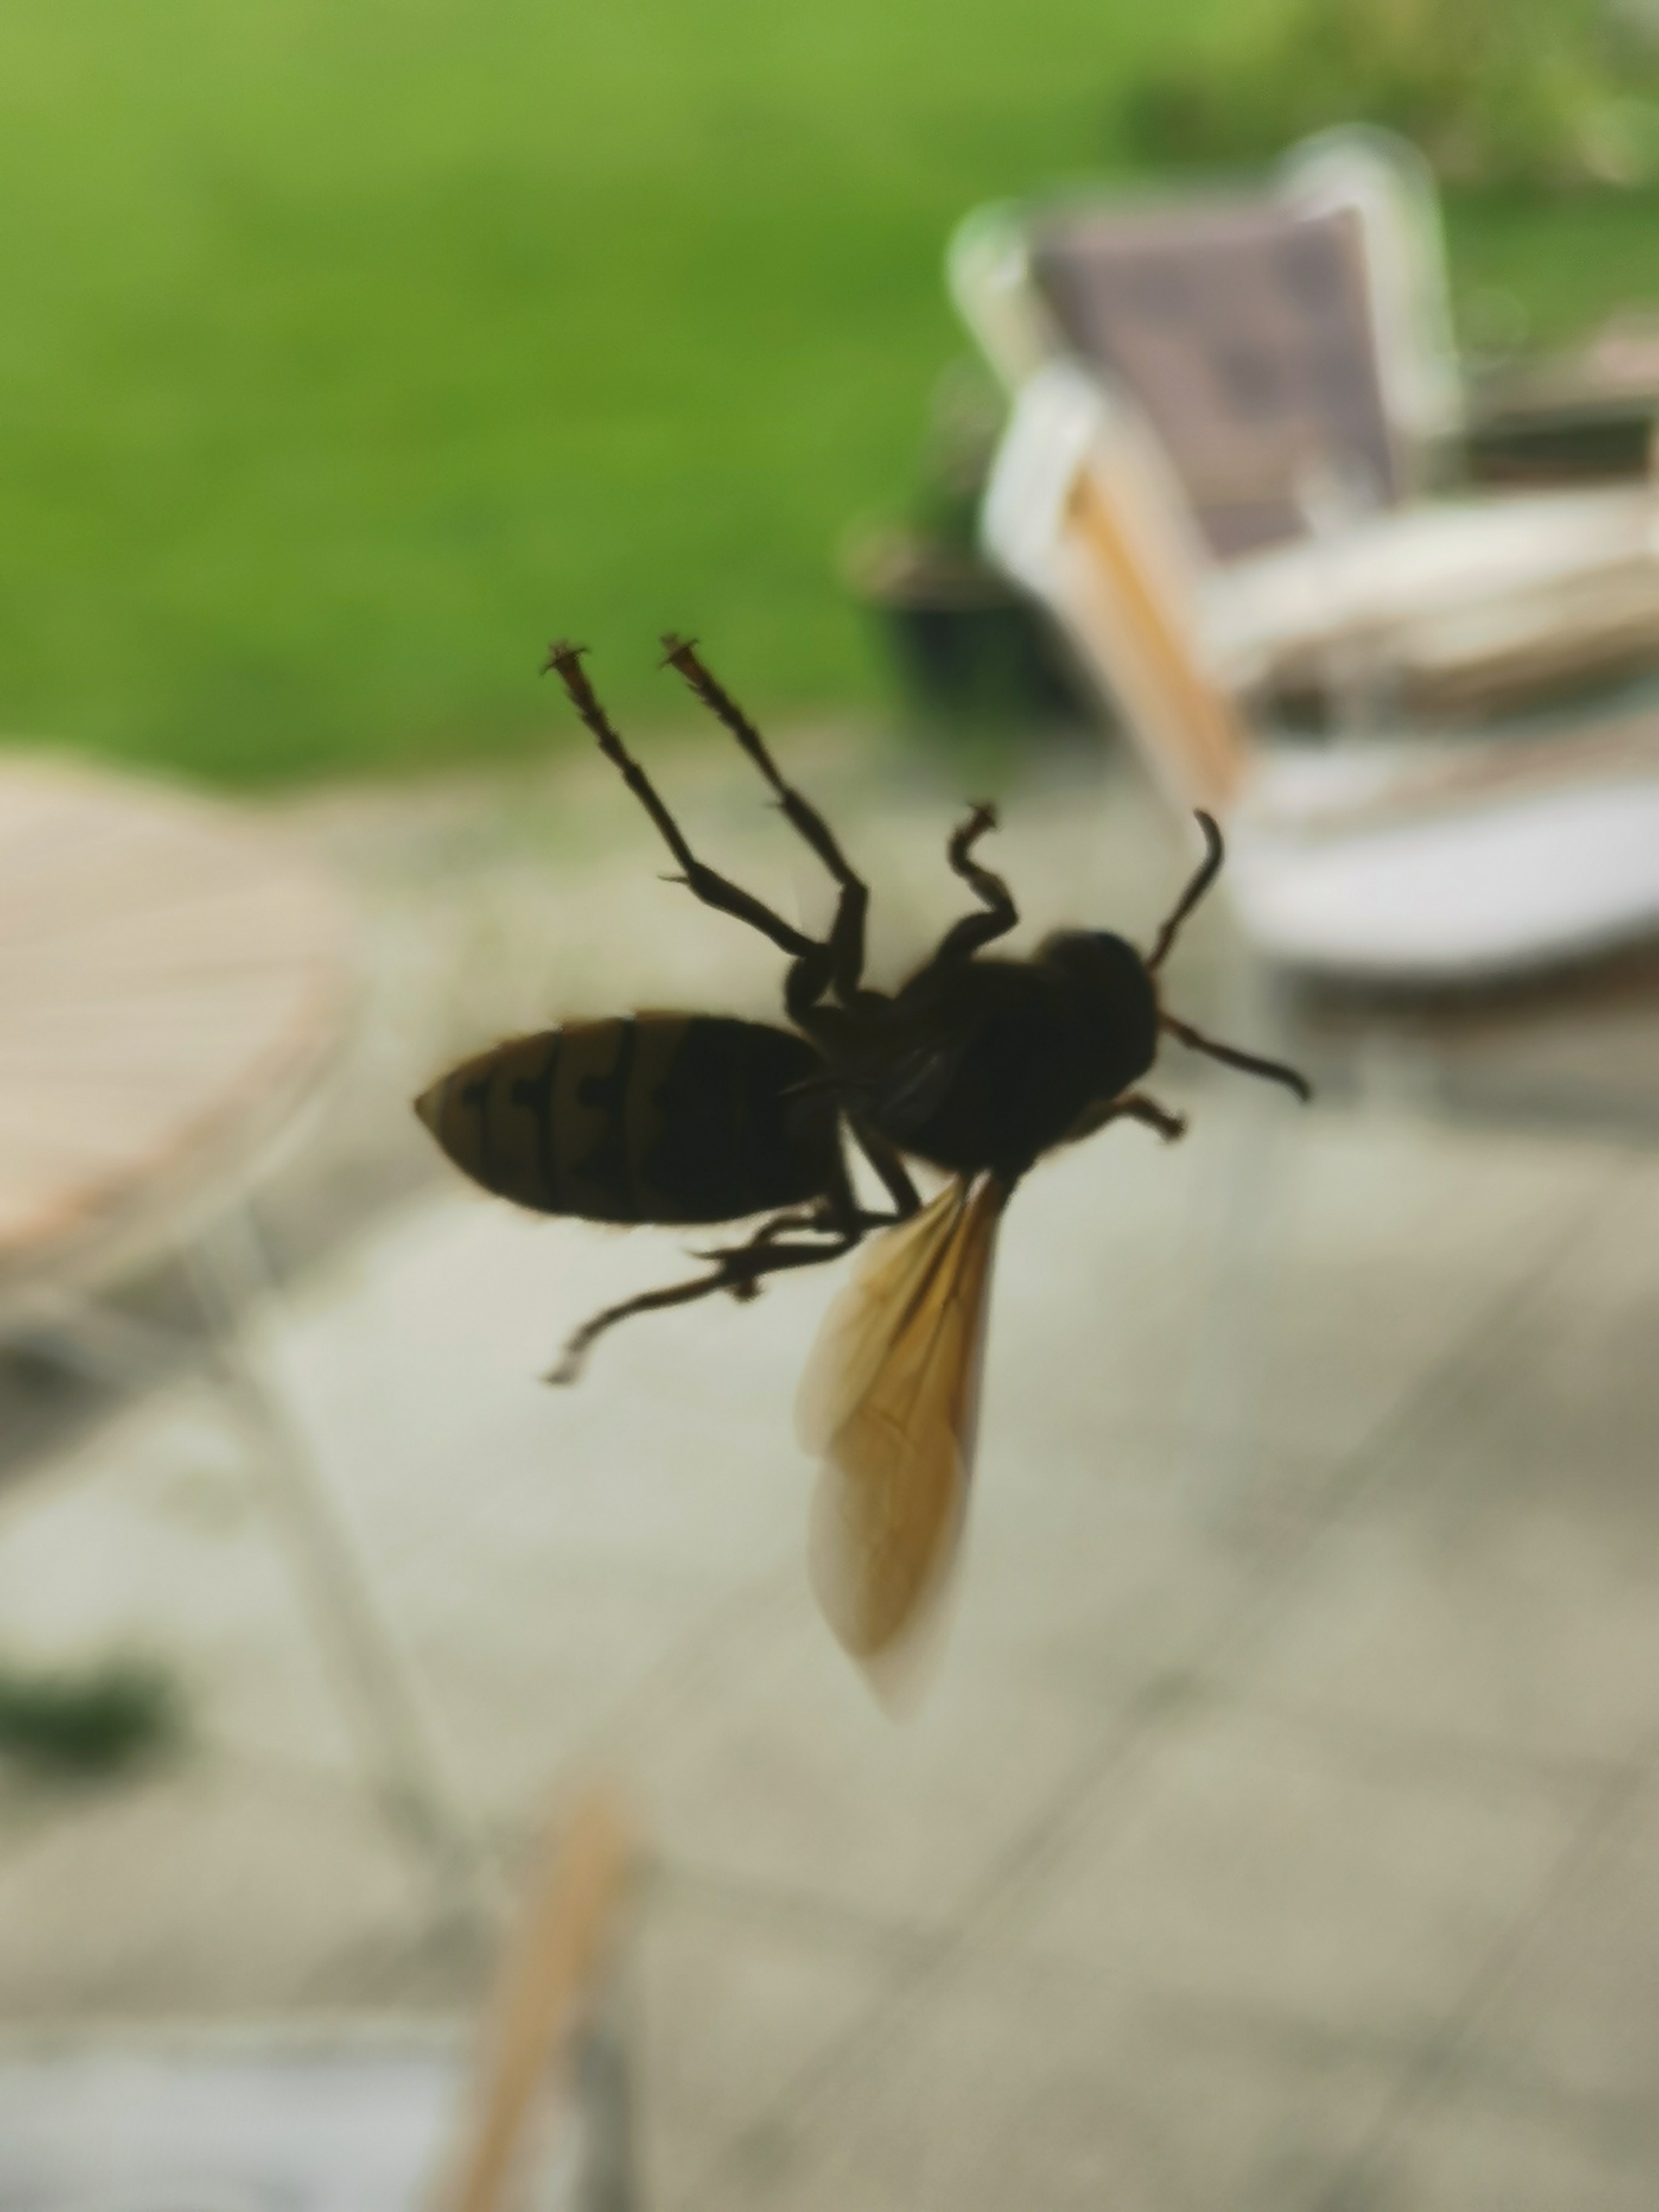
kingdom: Animalia
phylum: Arthropoda
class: Insecta
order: Hymenoptera
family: Vespidae
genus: Vespa
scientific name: Vespa crabro
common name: Stor gedehams
